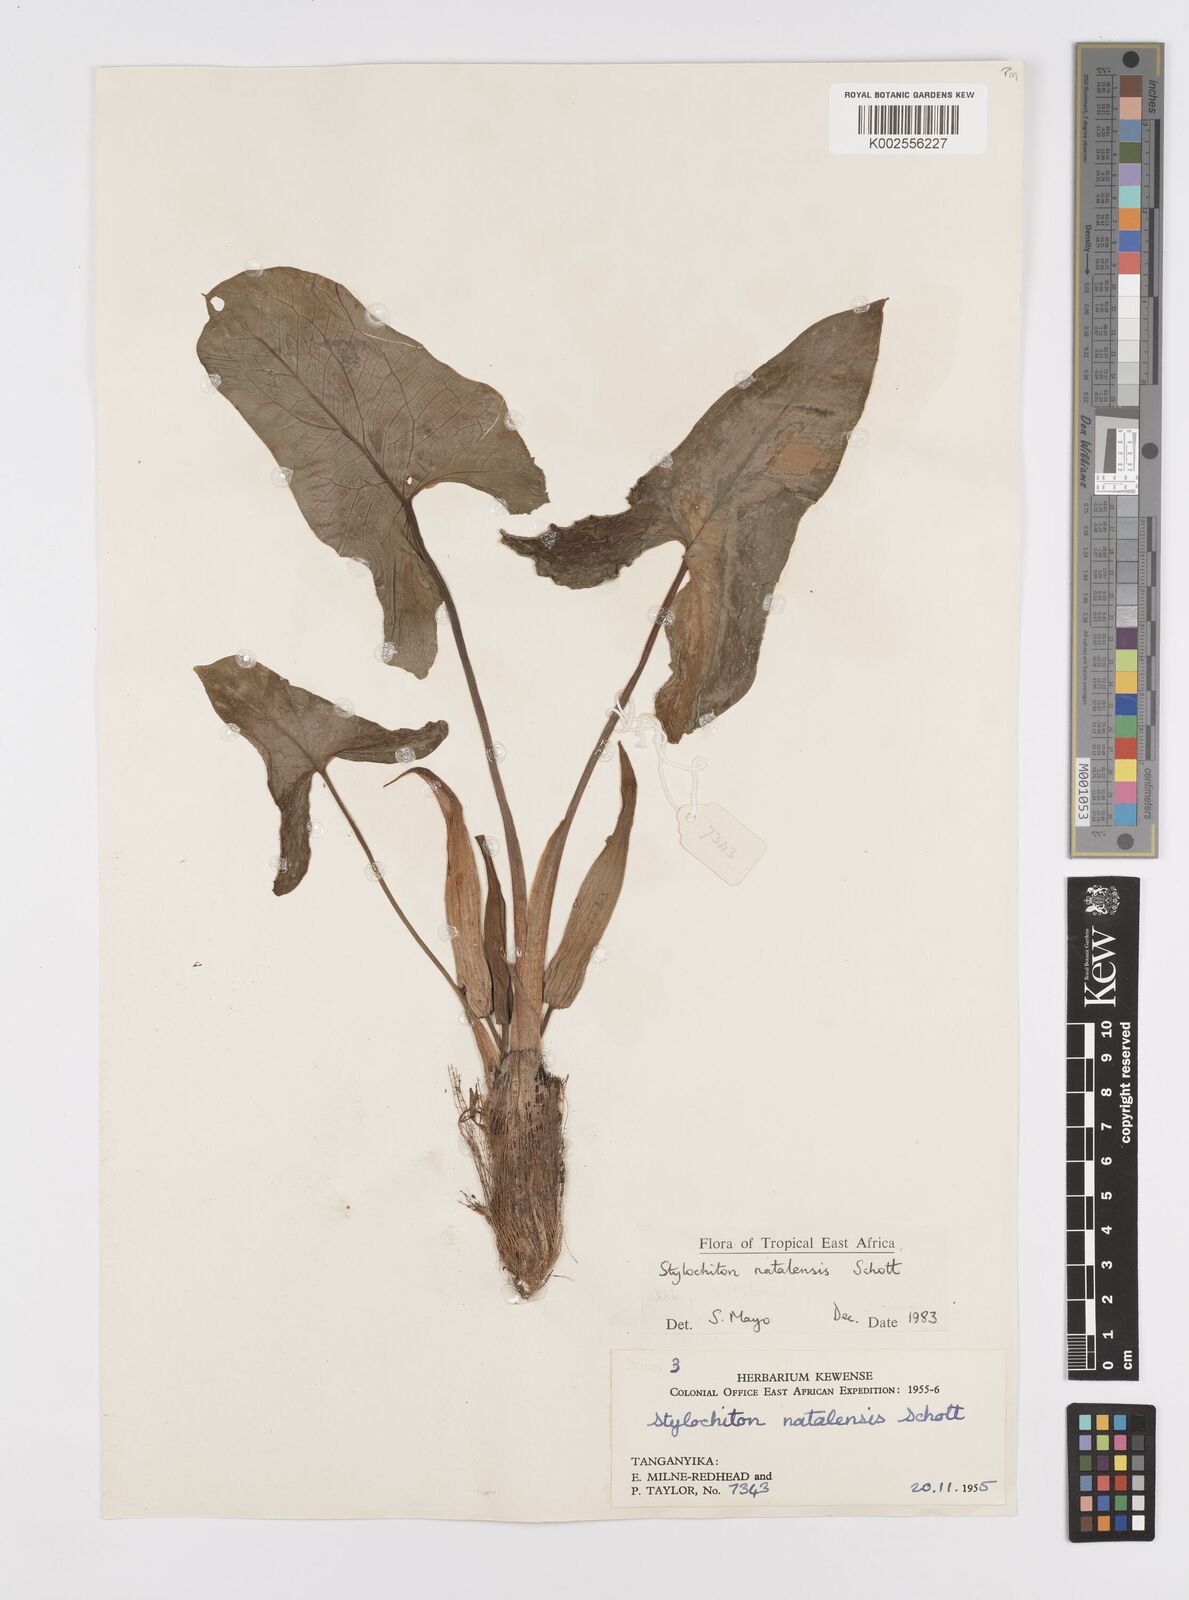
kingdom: Plantae
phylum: Tracheophyta
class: Liliopsida
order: Alismatales
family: Araceae
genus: Stylochaeton
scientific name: Stylochaeton natalense
